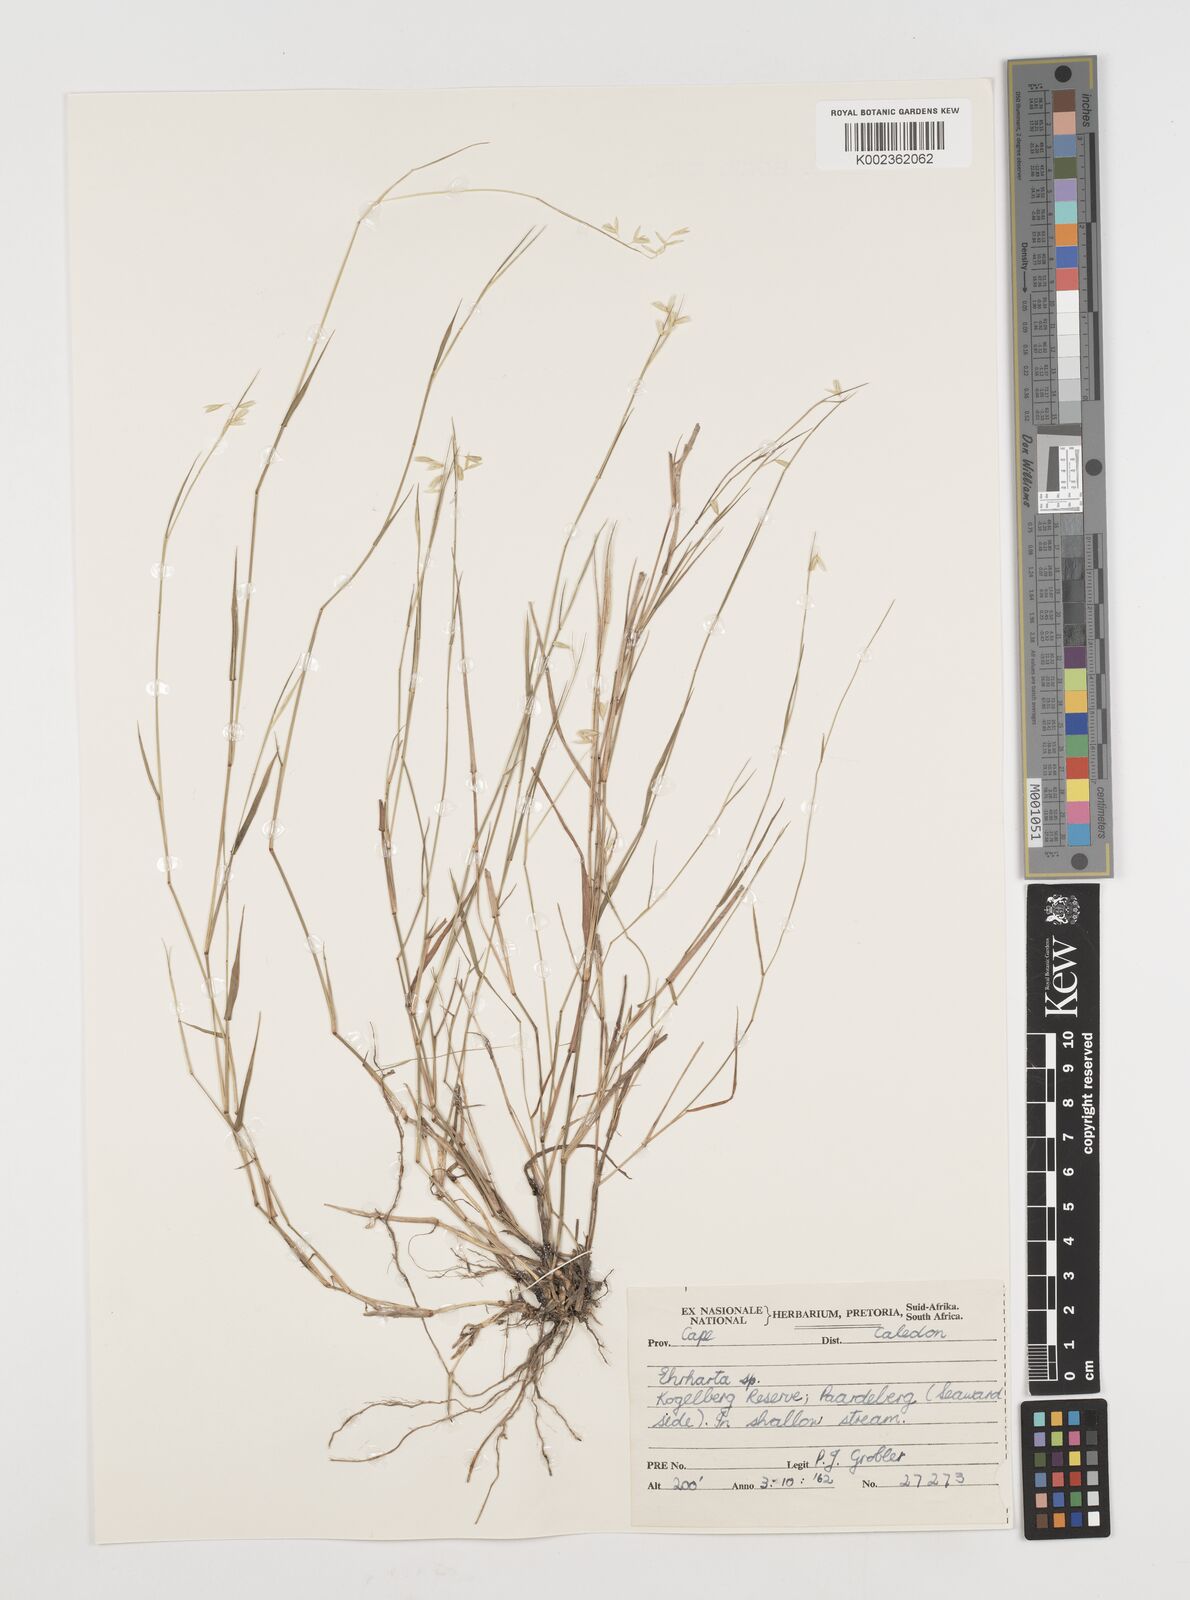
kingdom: Plantae
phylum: Tracheophyta
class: Liliopsida
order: Poales
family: Poaceae
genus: Ehrharta
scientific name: Ehrharta rehmannii
